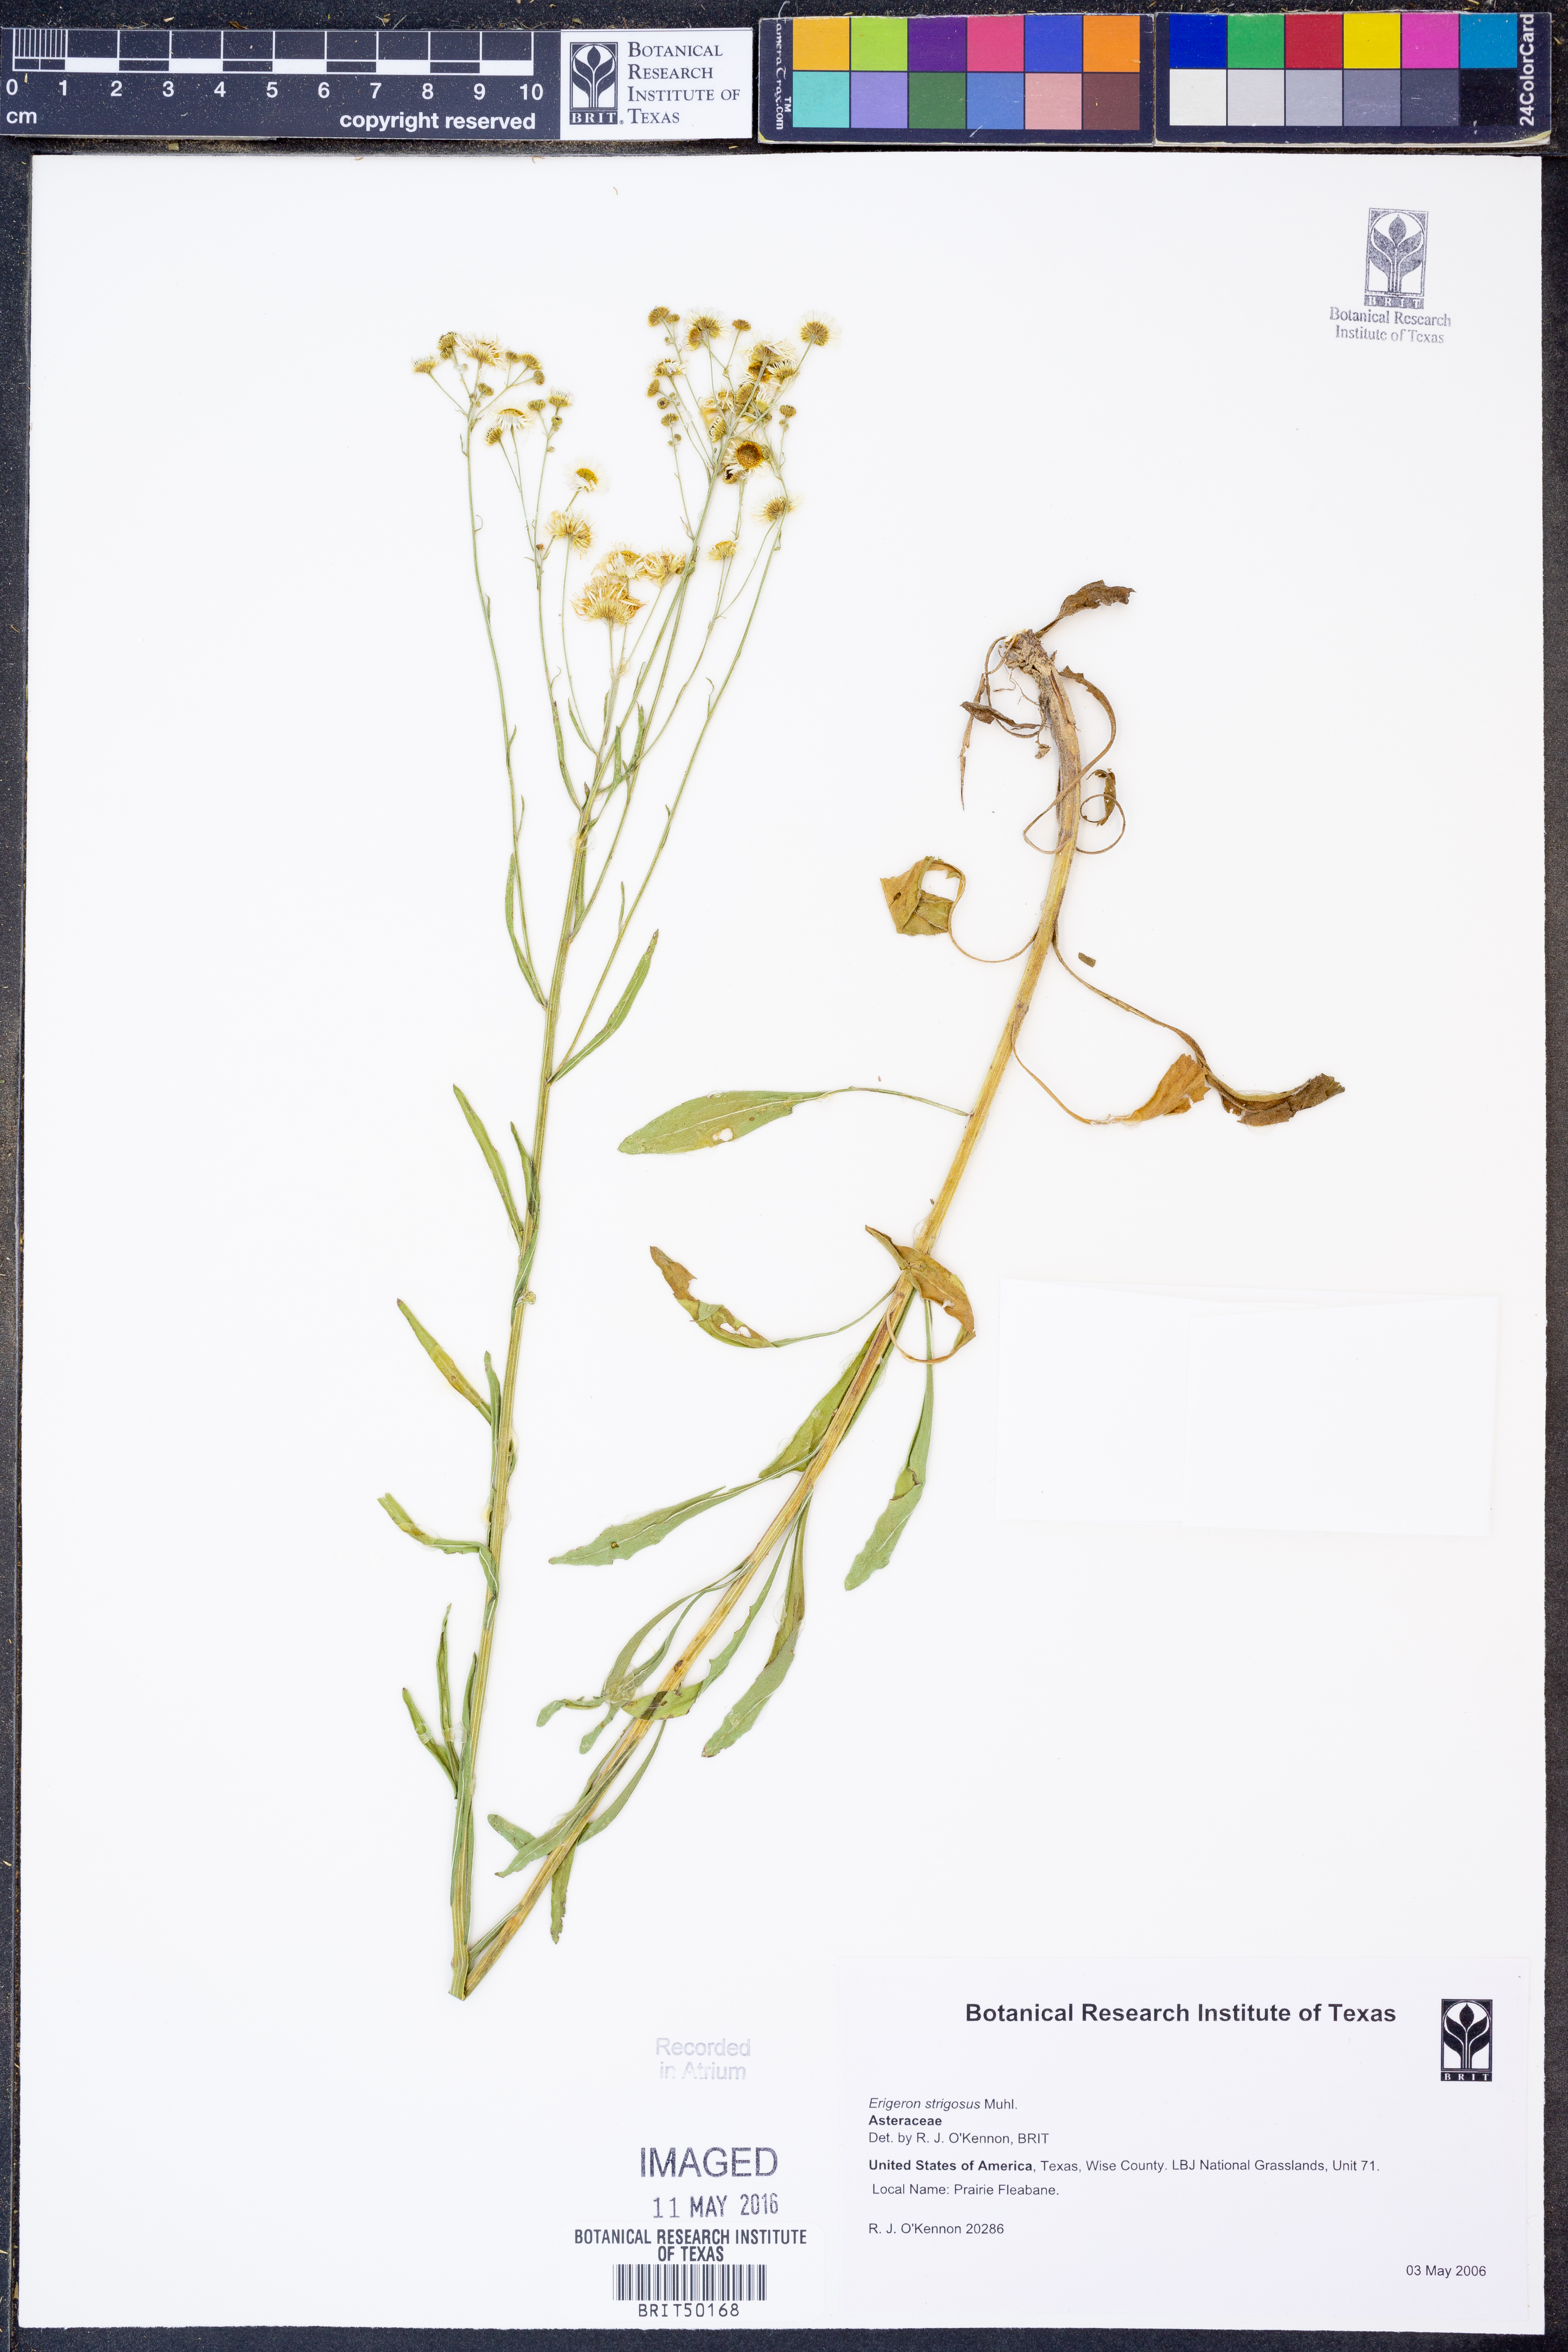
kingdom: Plantae
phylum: Tracheophyta
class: Magnoliopsida
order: Asterales
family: Asteraceae
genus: Erigeron
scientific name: Erigeron strigosus
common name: Common eastern fleabane
